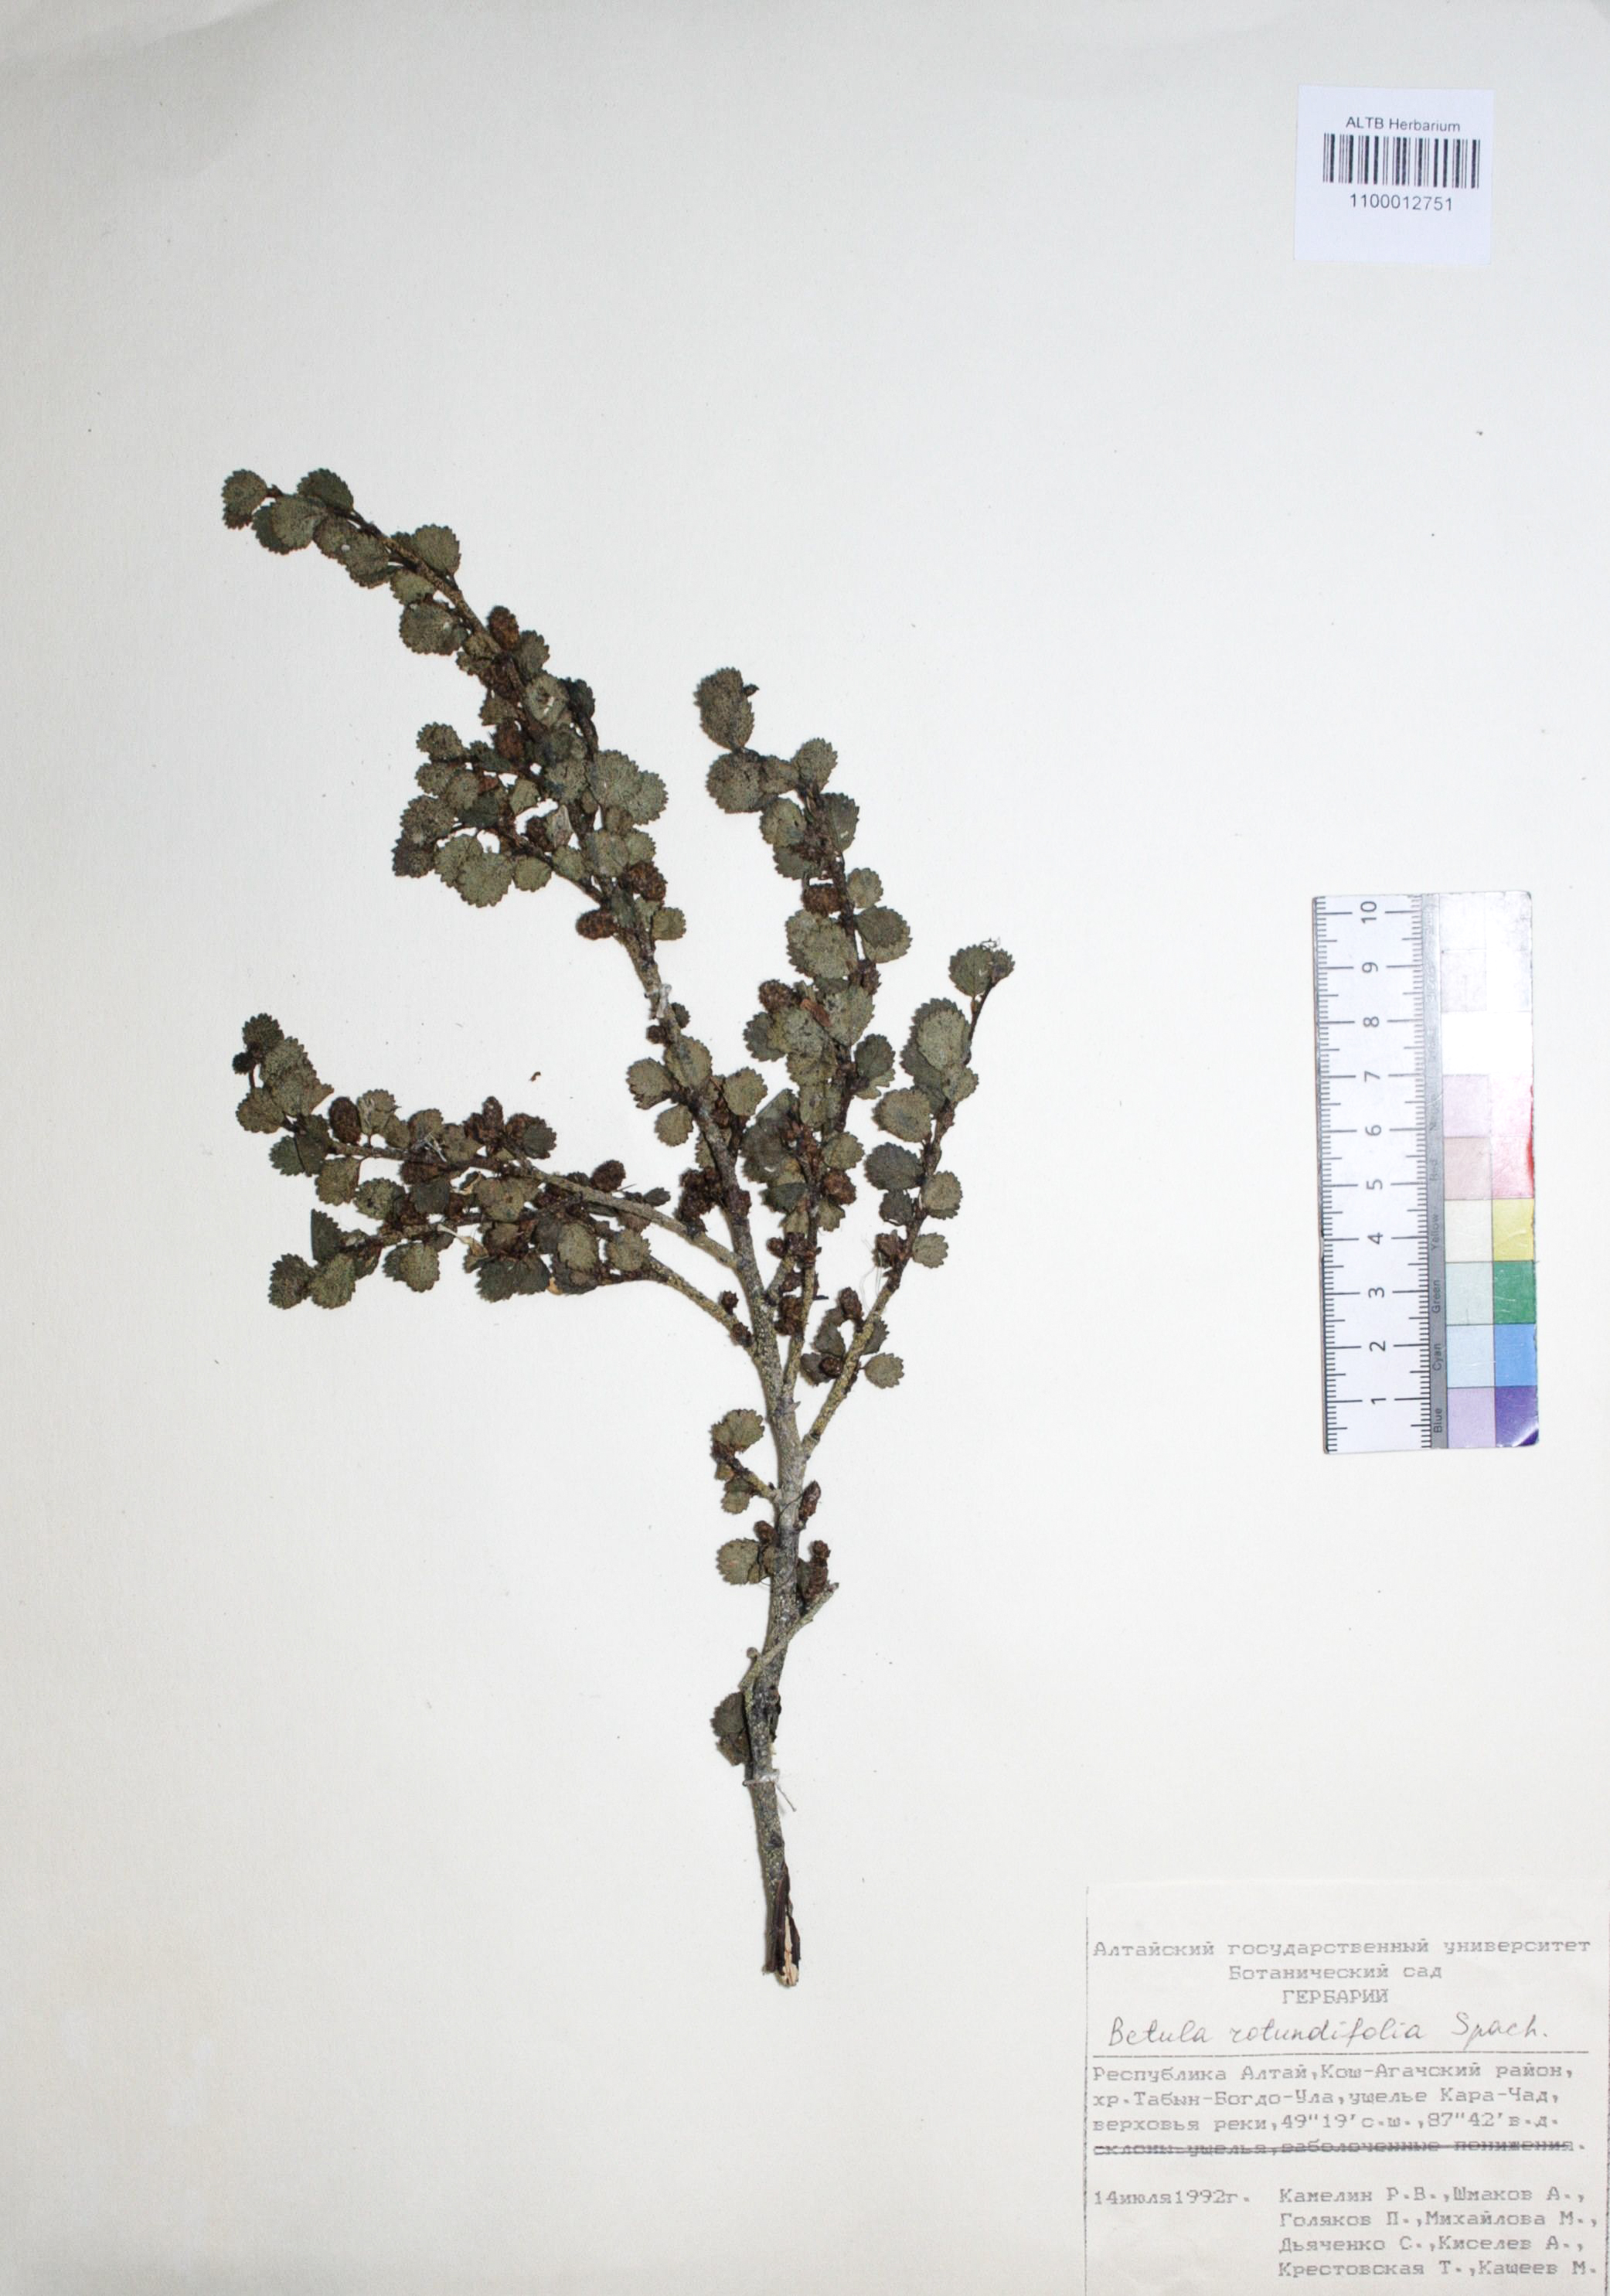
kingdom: Plantae
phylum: Tracheophyta
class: Magnoliopsida
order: Fagales
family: Betulaceae
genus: Betula
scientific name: Betula glandulosa
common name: Dwarf birch
